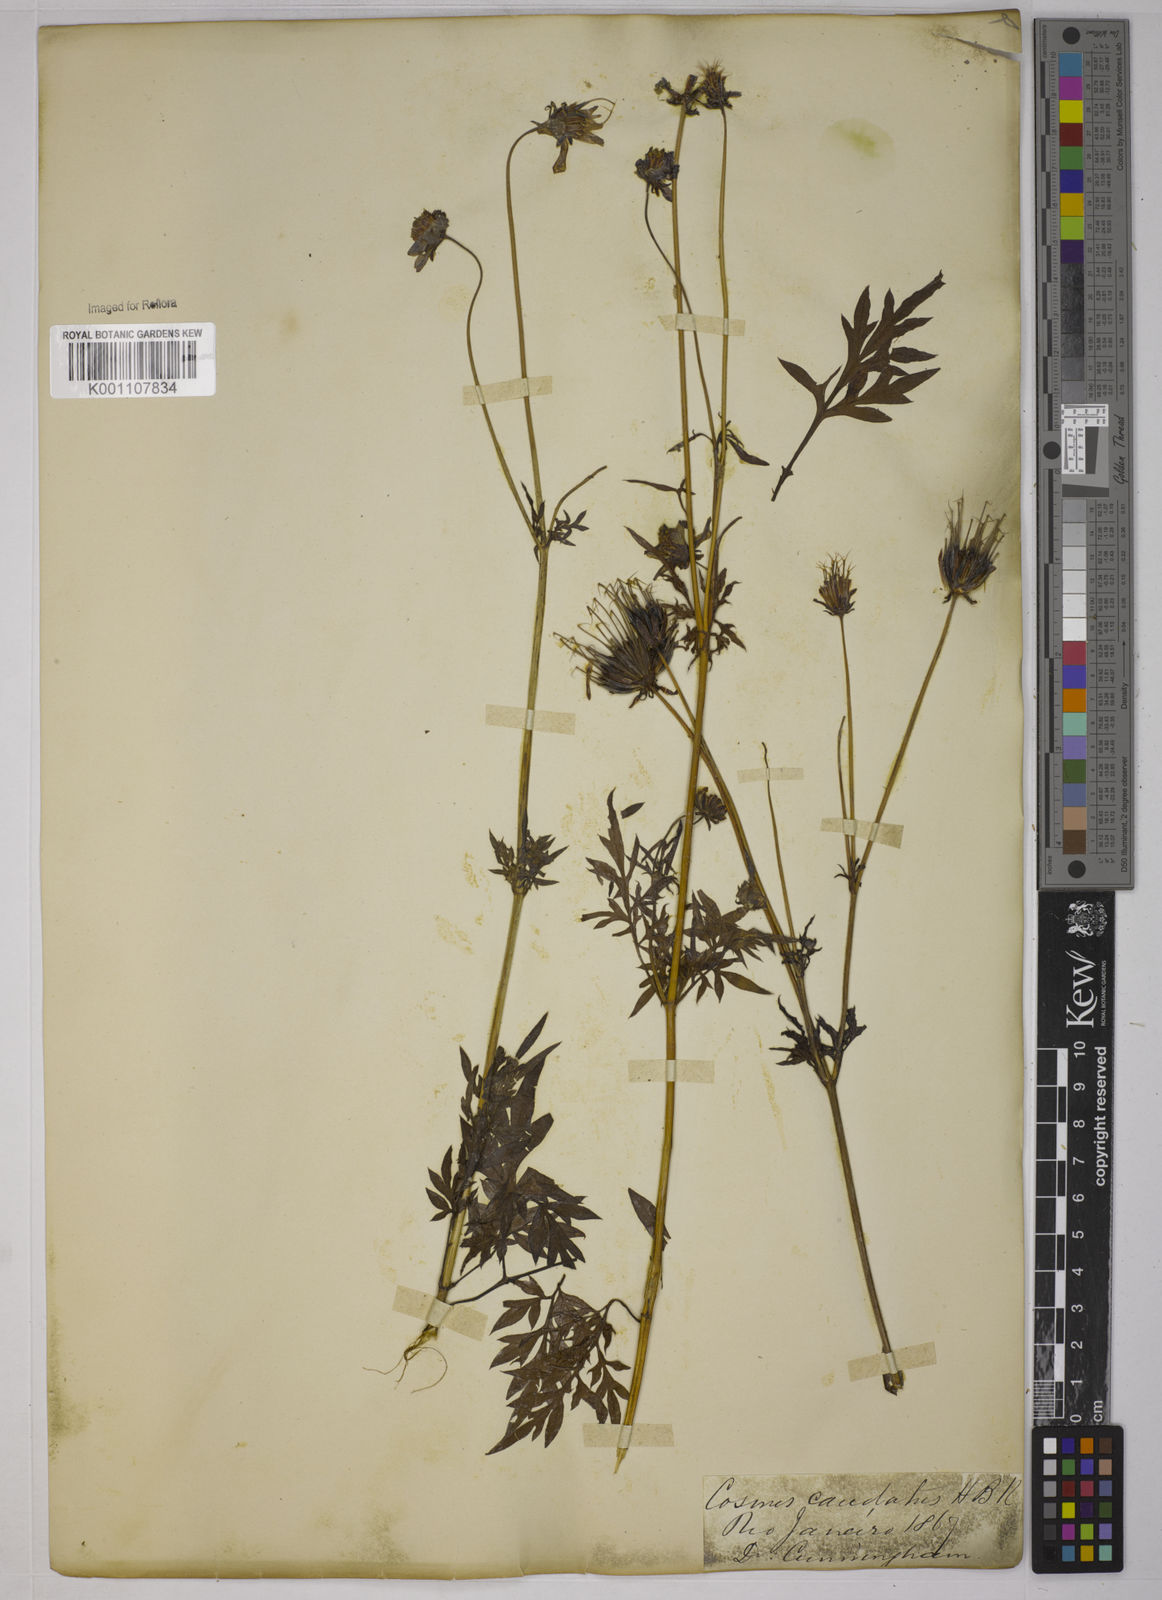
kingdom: Plantae
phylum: Tracheophyta
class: Magnoliopsida
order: Asterales
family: Asteraceae
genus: Cosmos
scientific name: Cosmos caudatus
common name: Wild cosmos
